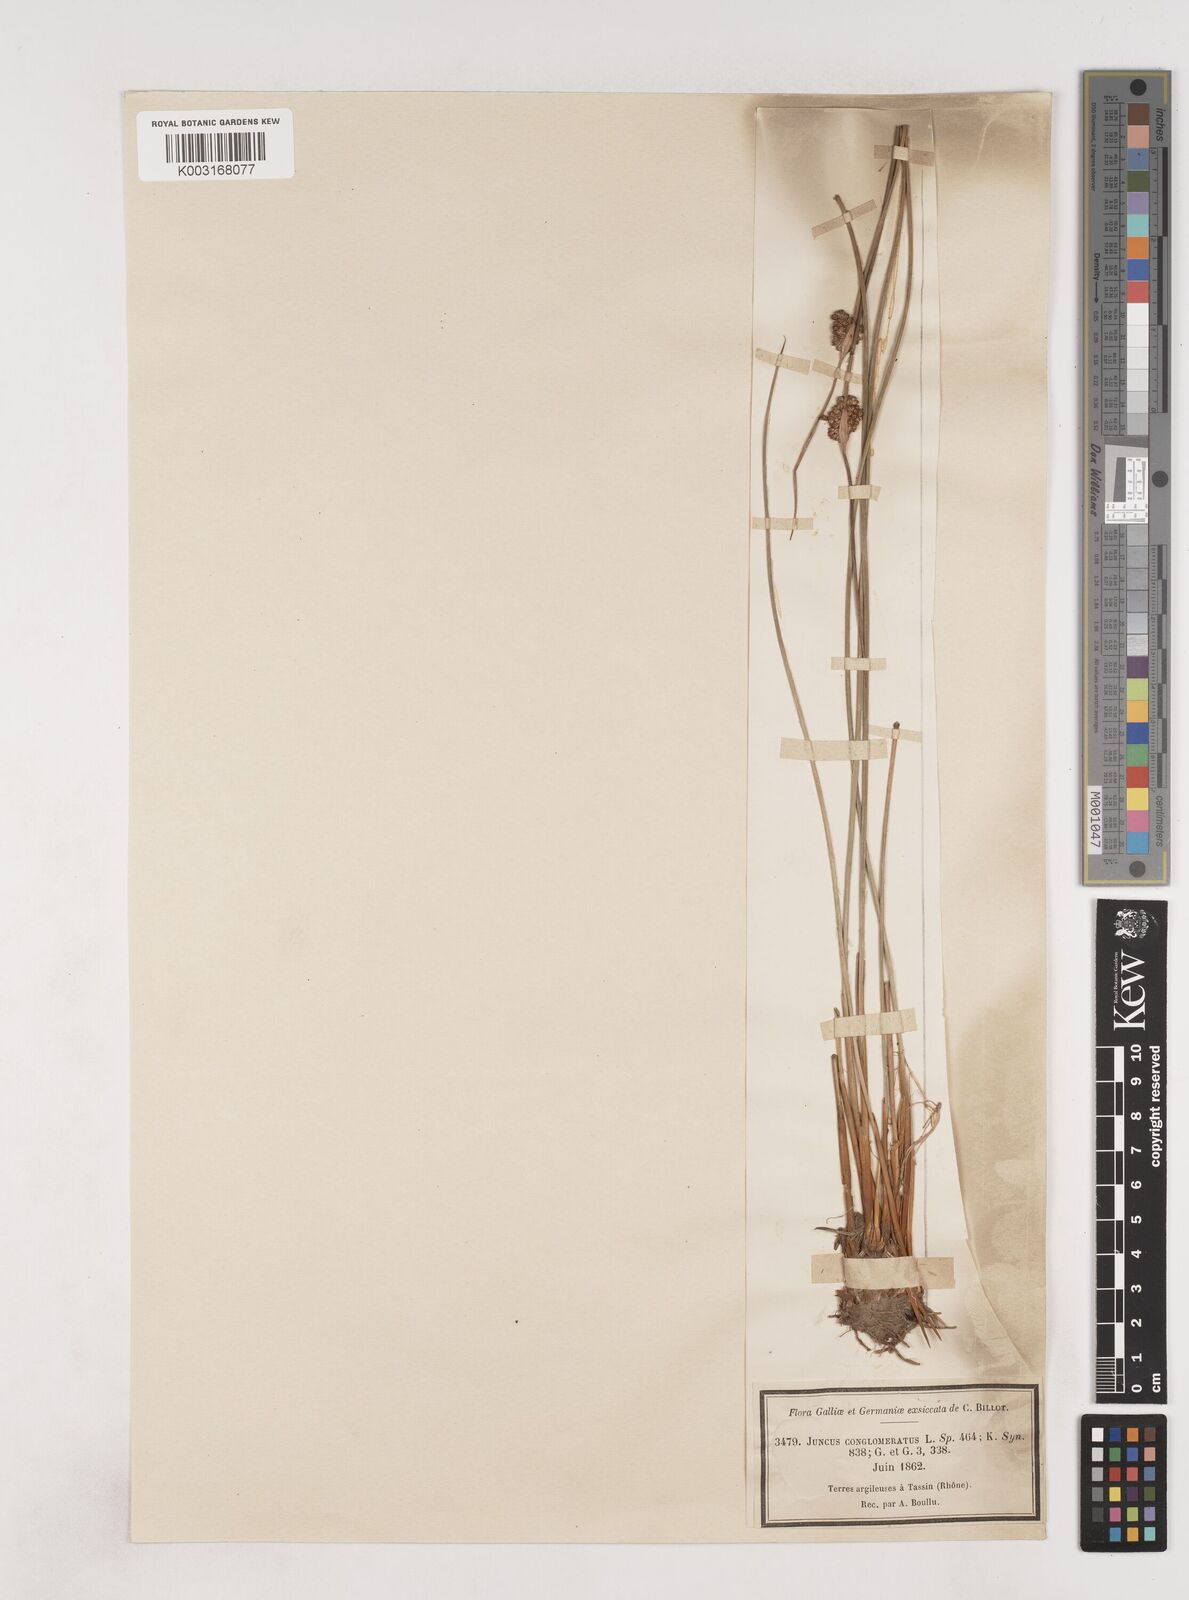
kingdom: Plantae
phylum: Tracheophyta
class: Liliopsida
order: Poales
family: Juncaceae
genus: Juncus
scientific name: Juncus conglomeratus
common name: Compact rush
